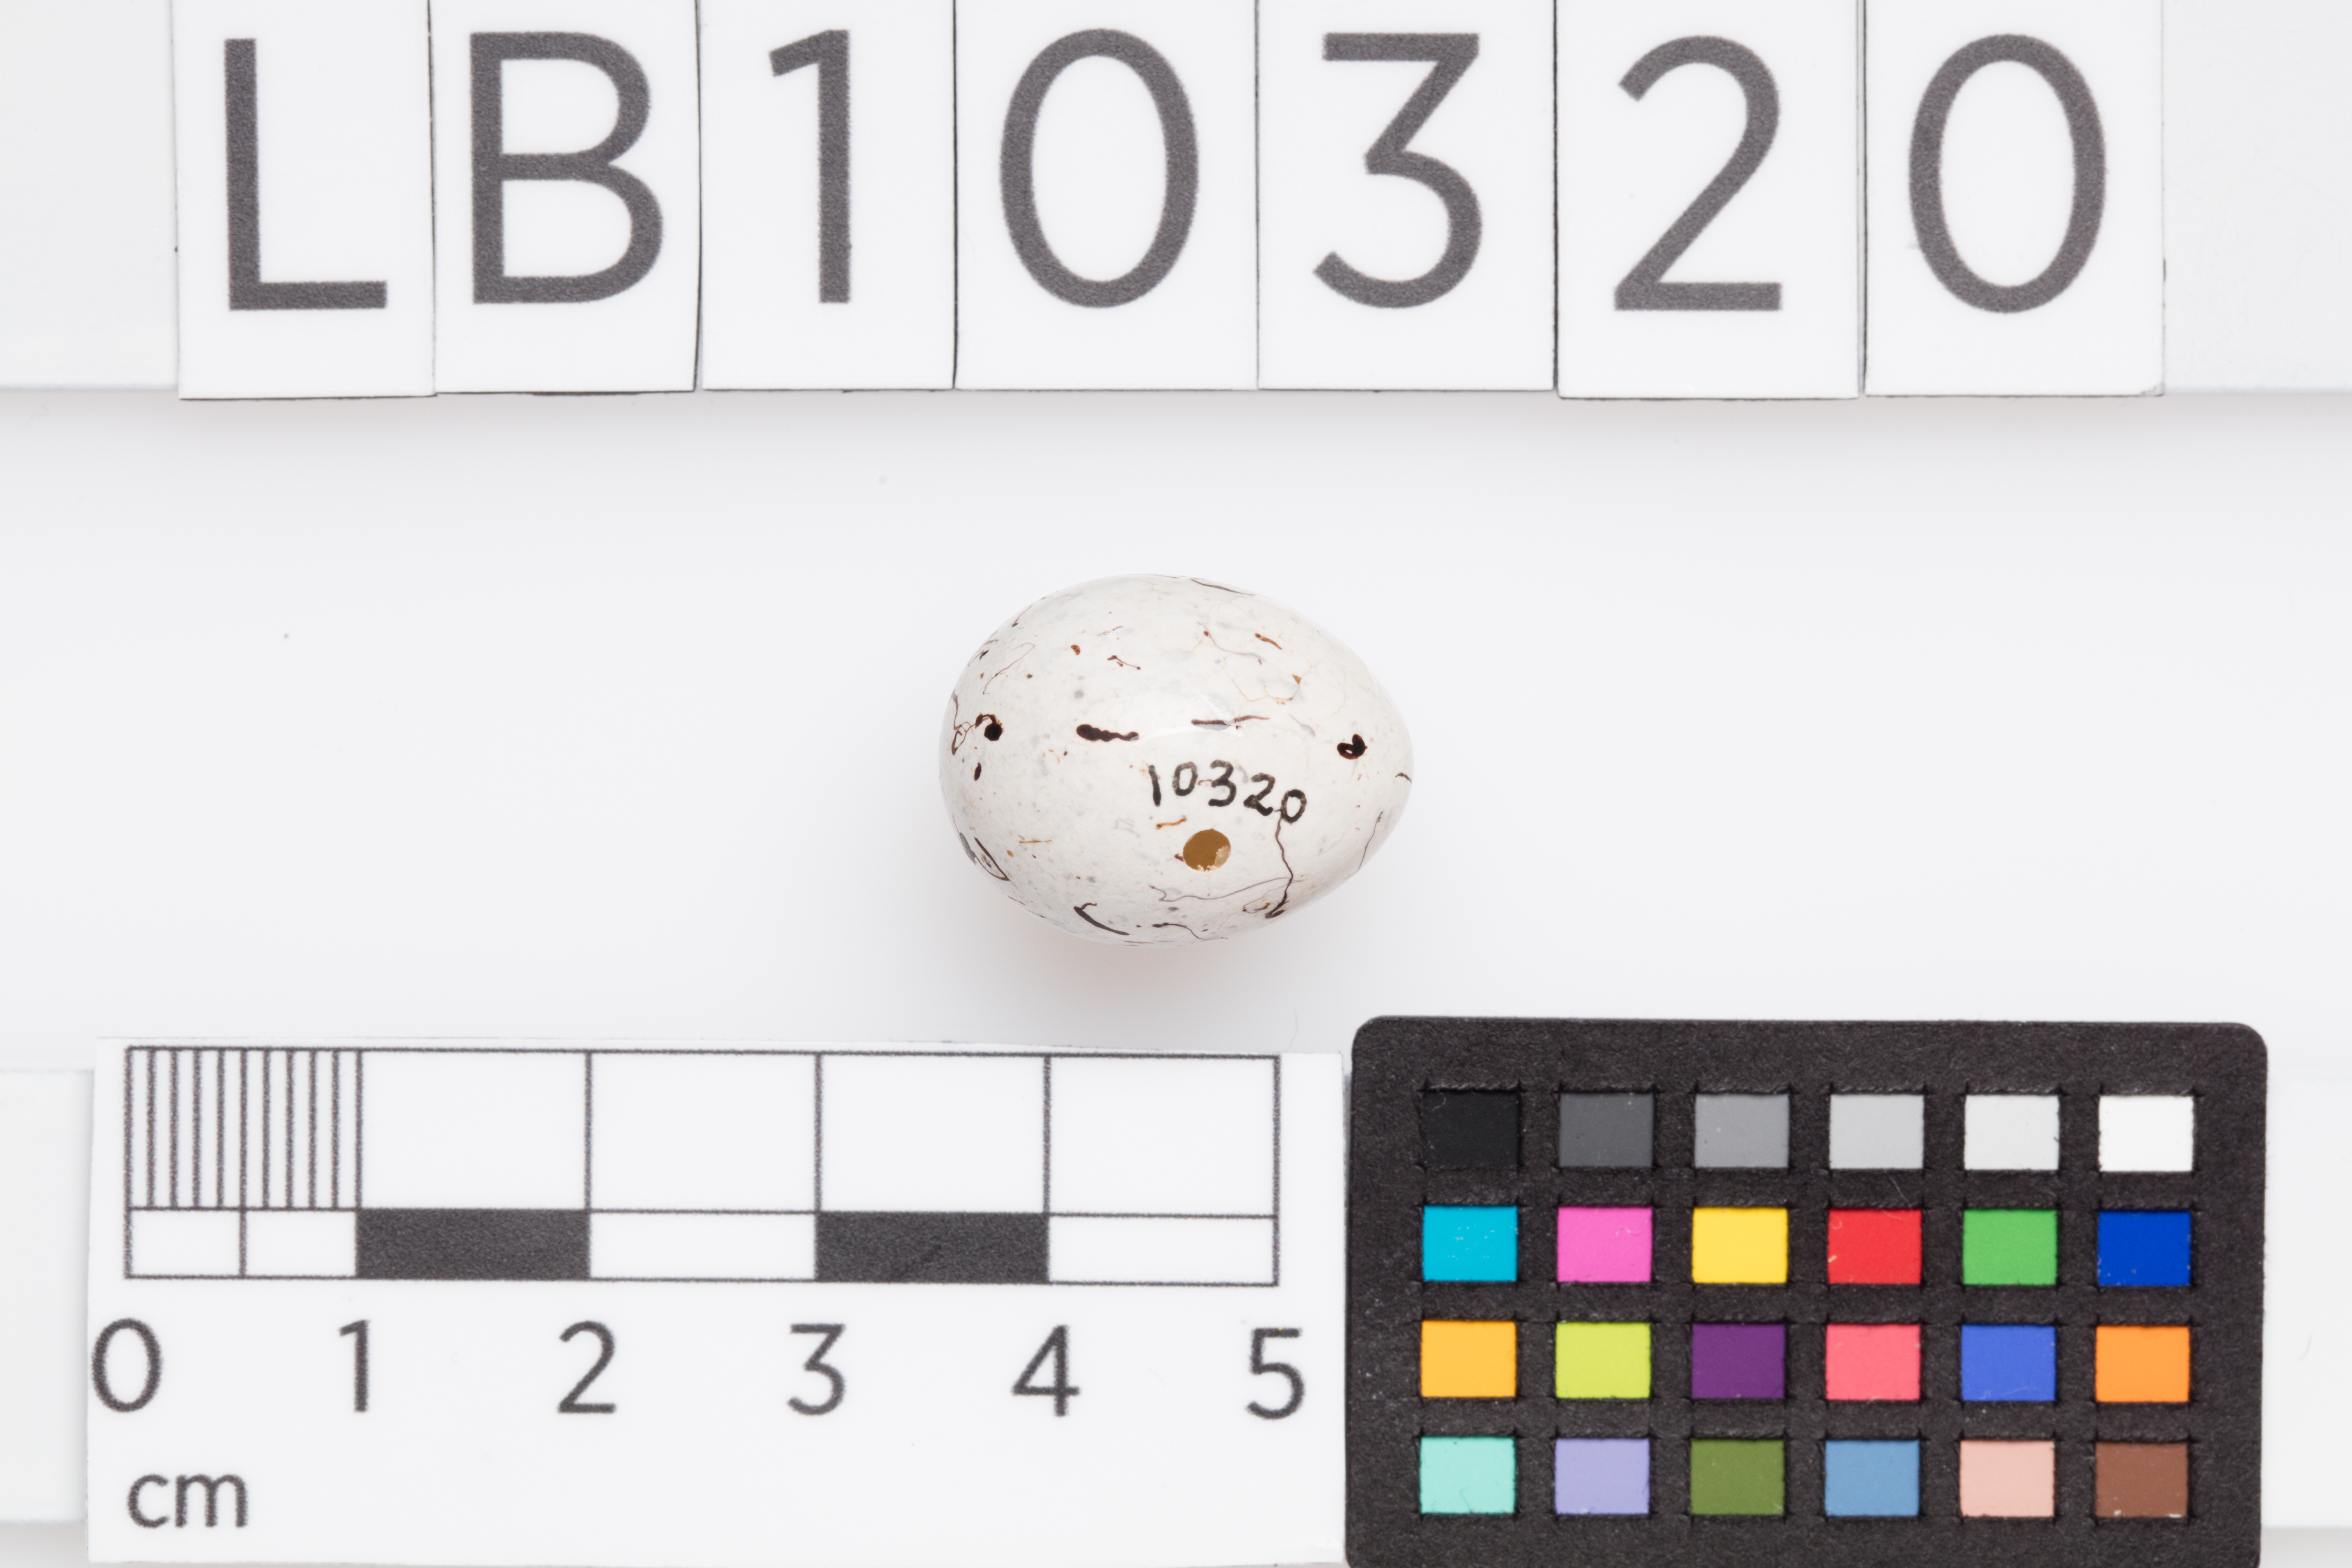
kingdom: Animalia
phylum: Chordata
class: Aves
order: Passeriformes
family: Emberizidae
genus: Emberiza
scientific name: Emberiza cirlus
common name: Cirl bunting
